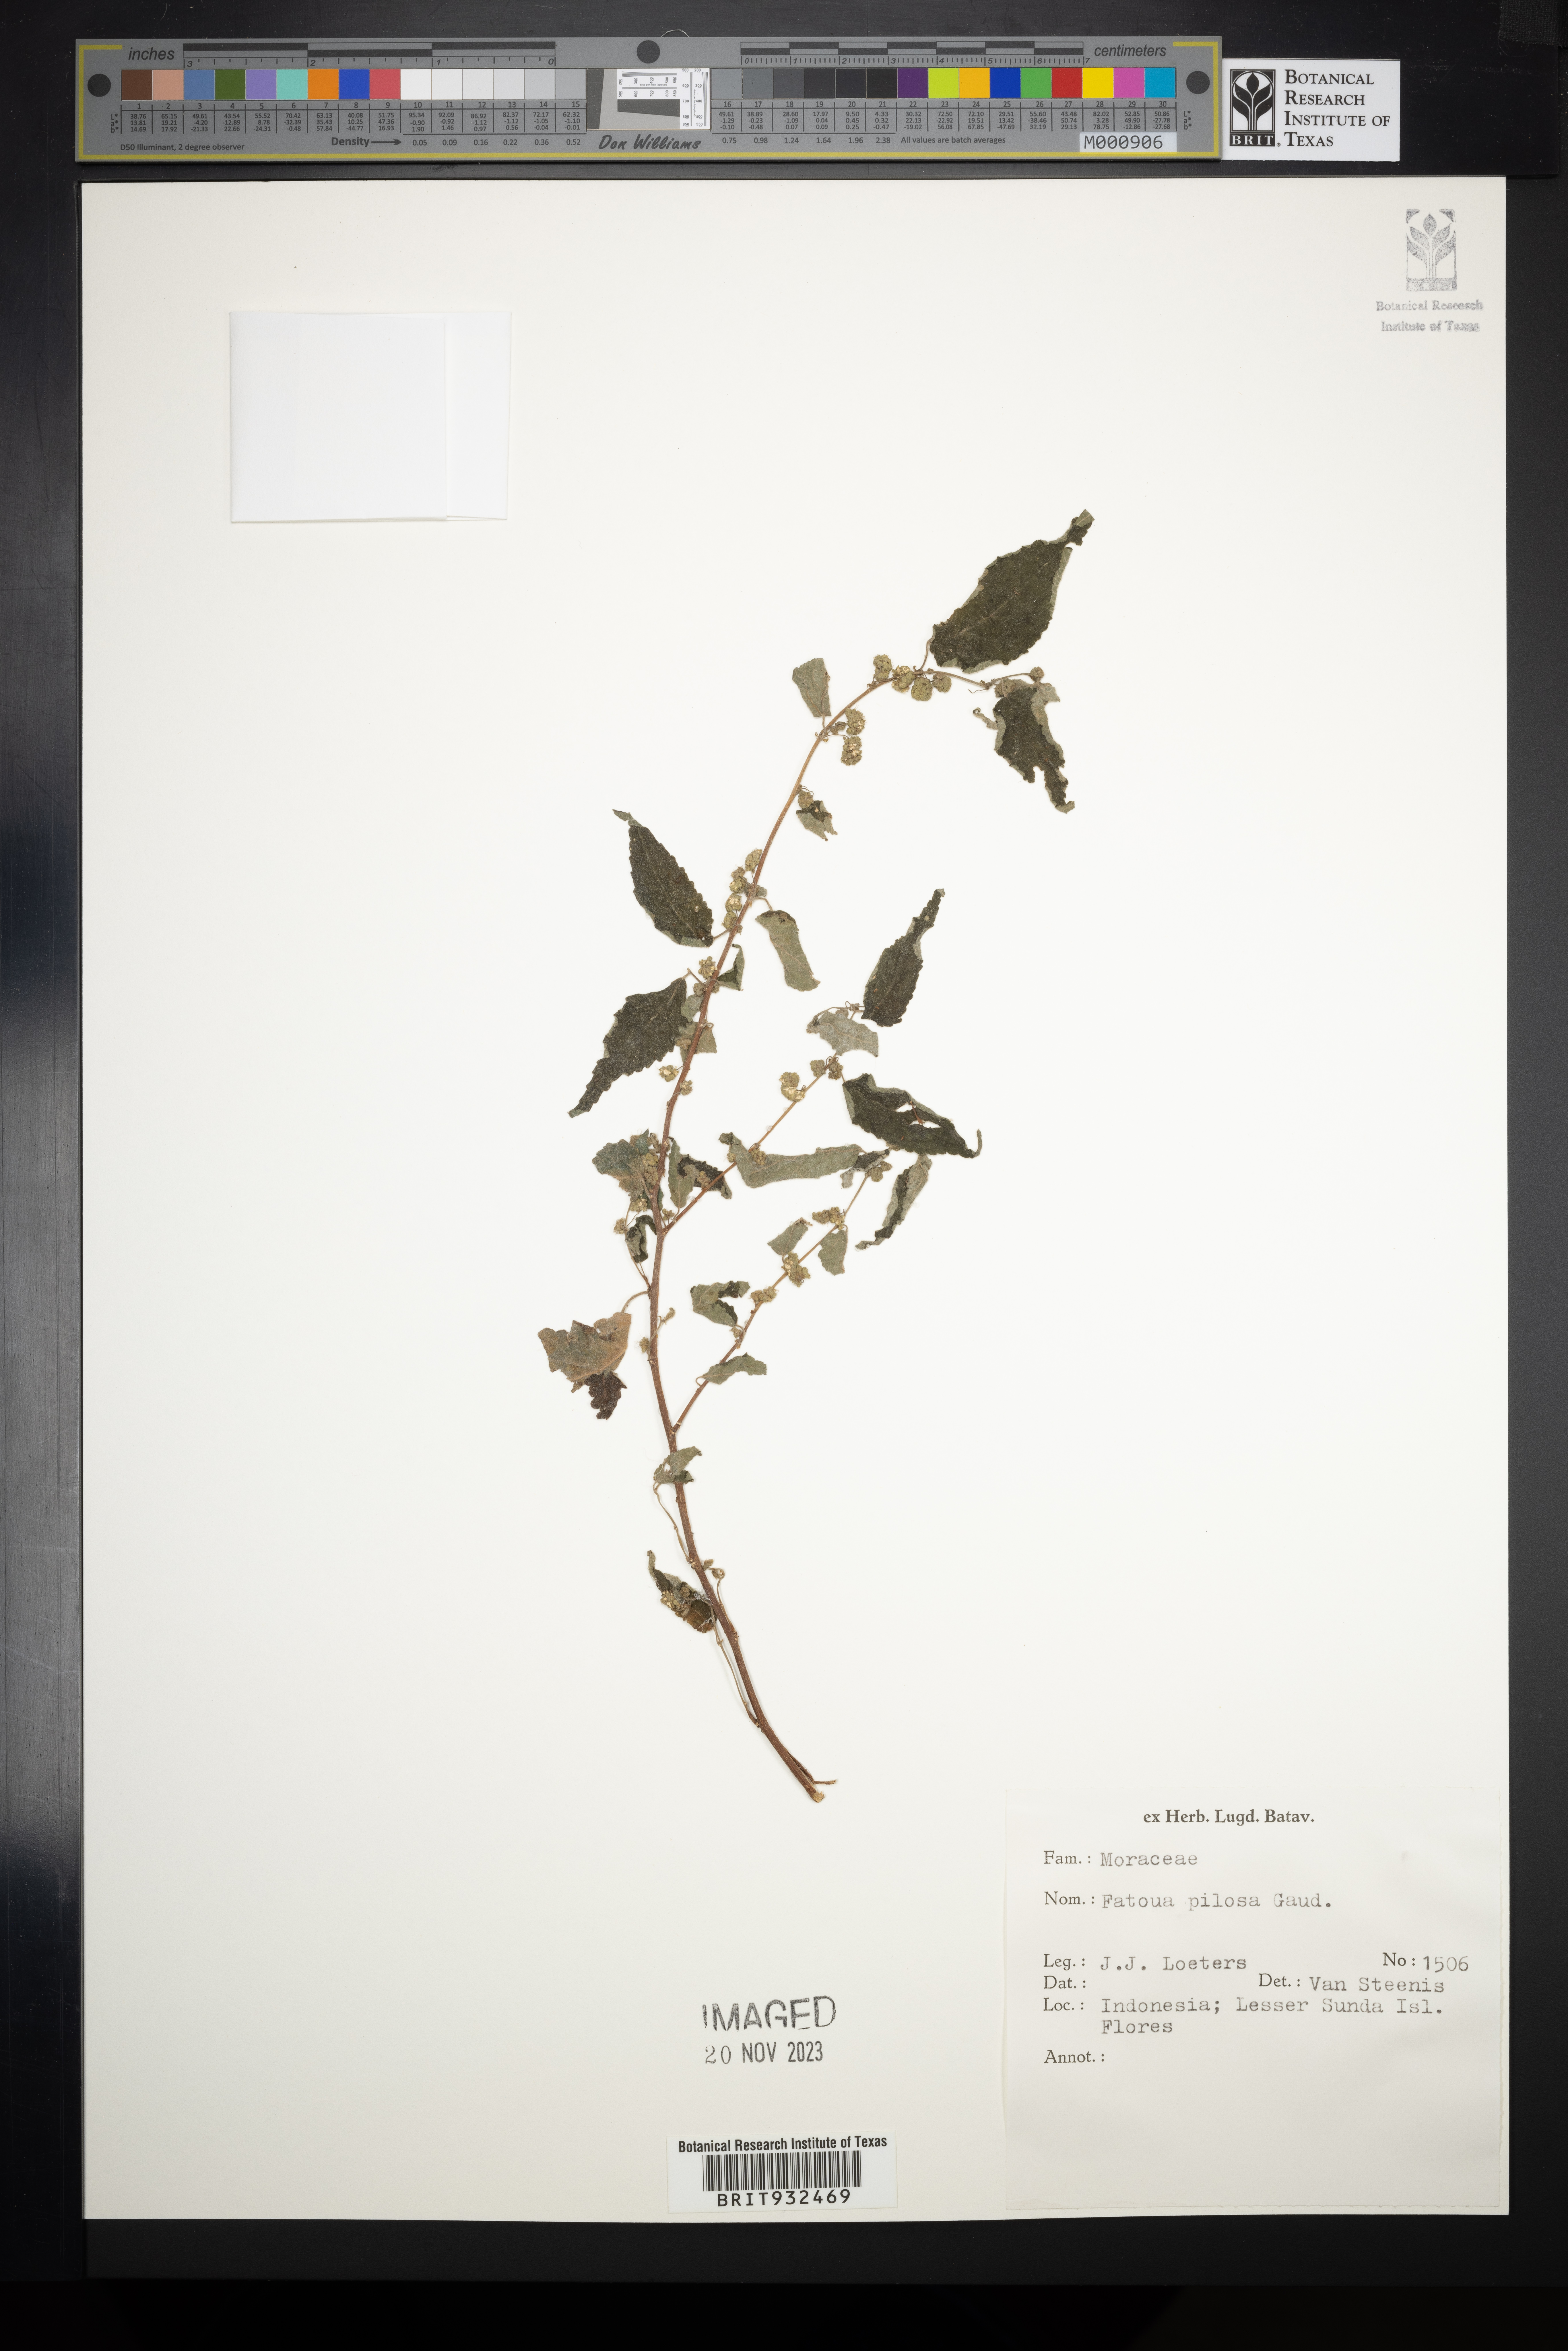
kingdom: Plantae
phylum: Tracheophyta
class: Magnoliopsida
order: Rosales
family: Moraceae
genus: Fatoua
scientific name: Fatoua
